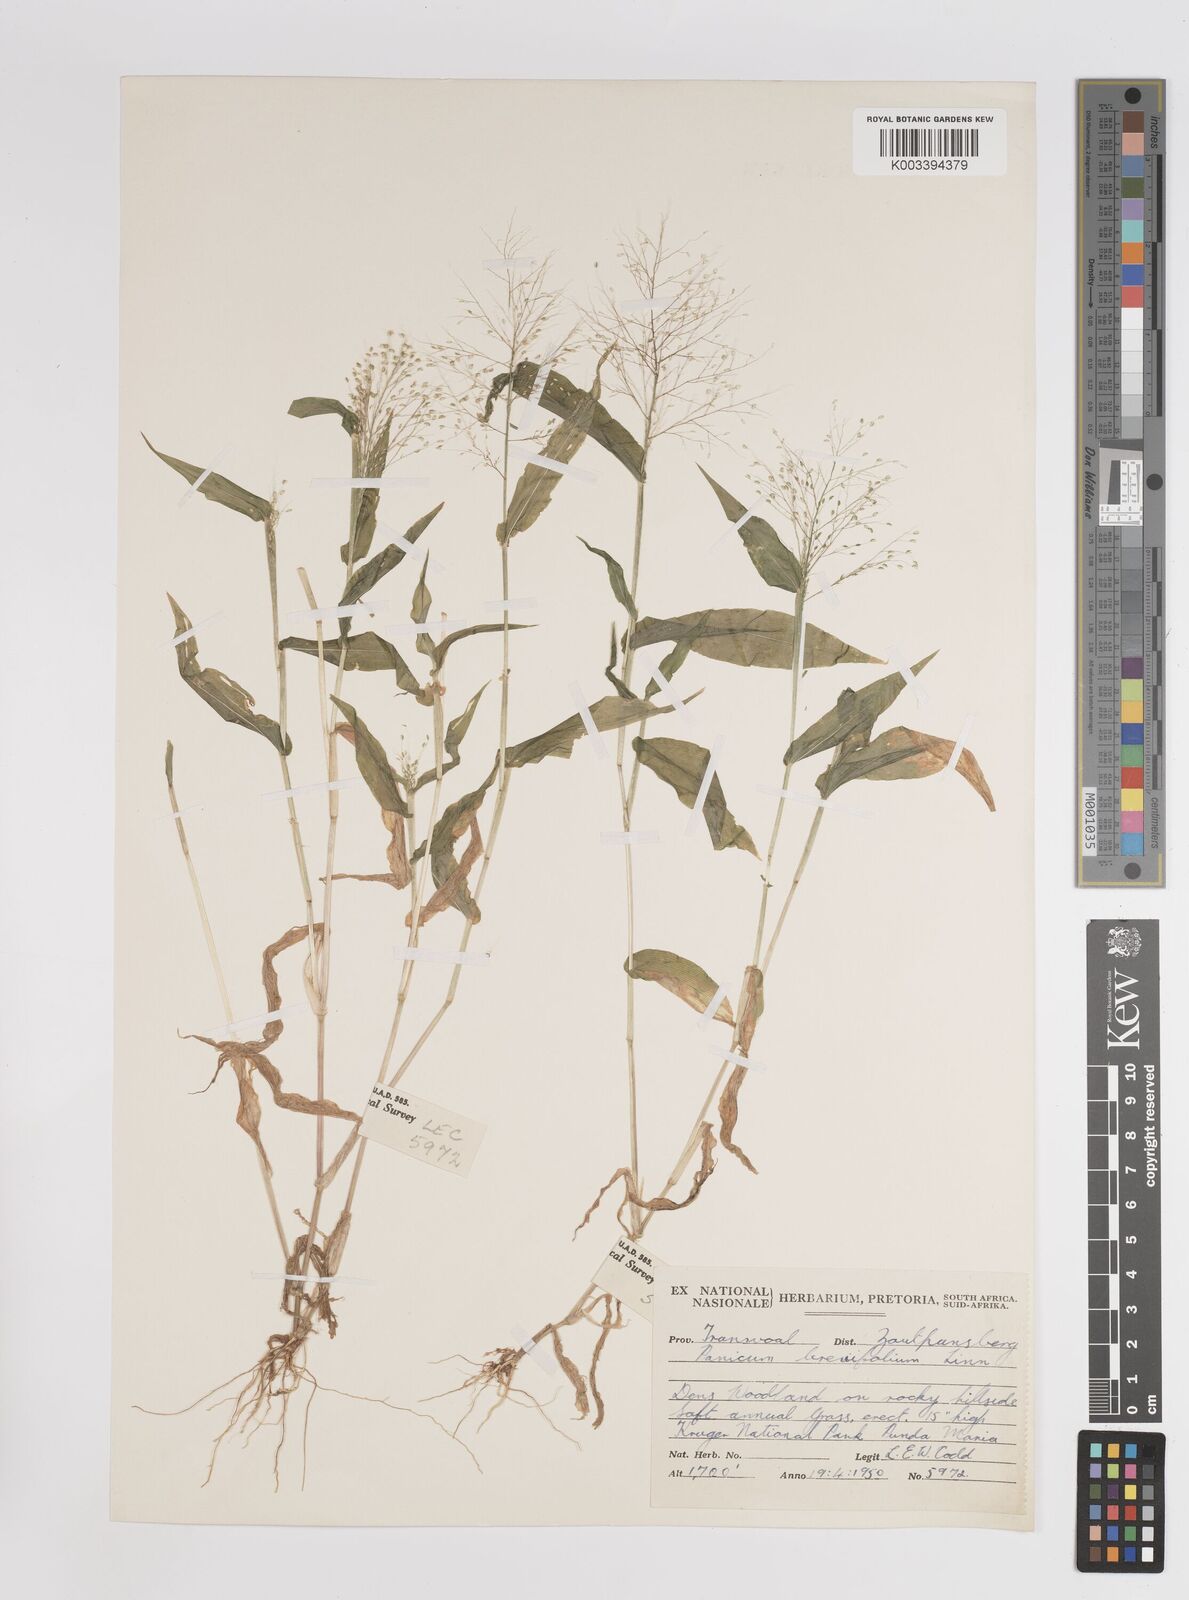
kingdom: Plantae
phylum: Tracheophyta
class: Liliopsida
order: Poales
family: Poaceae
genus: Panicum
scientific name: Panicum jahnii
